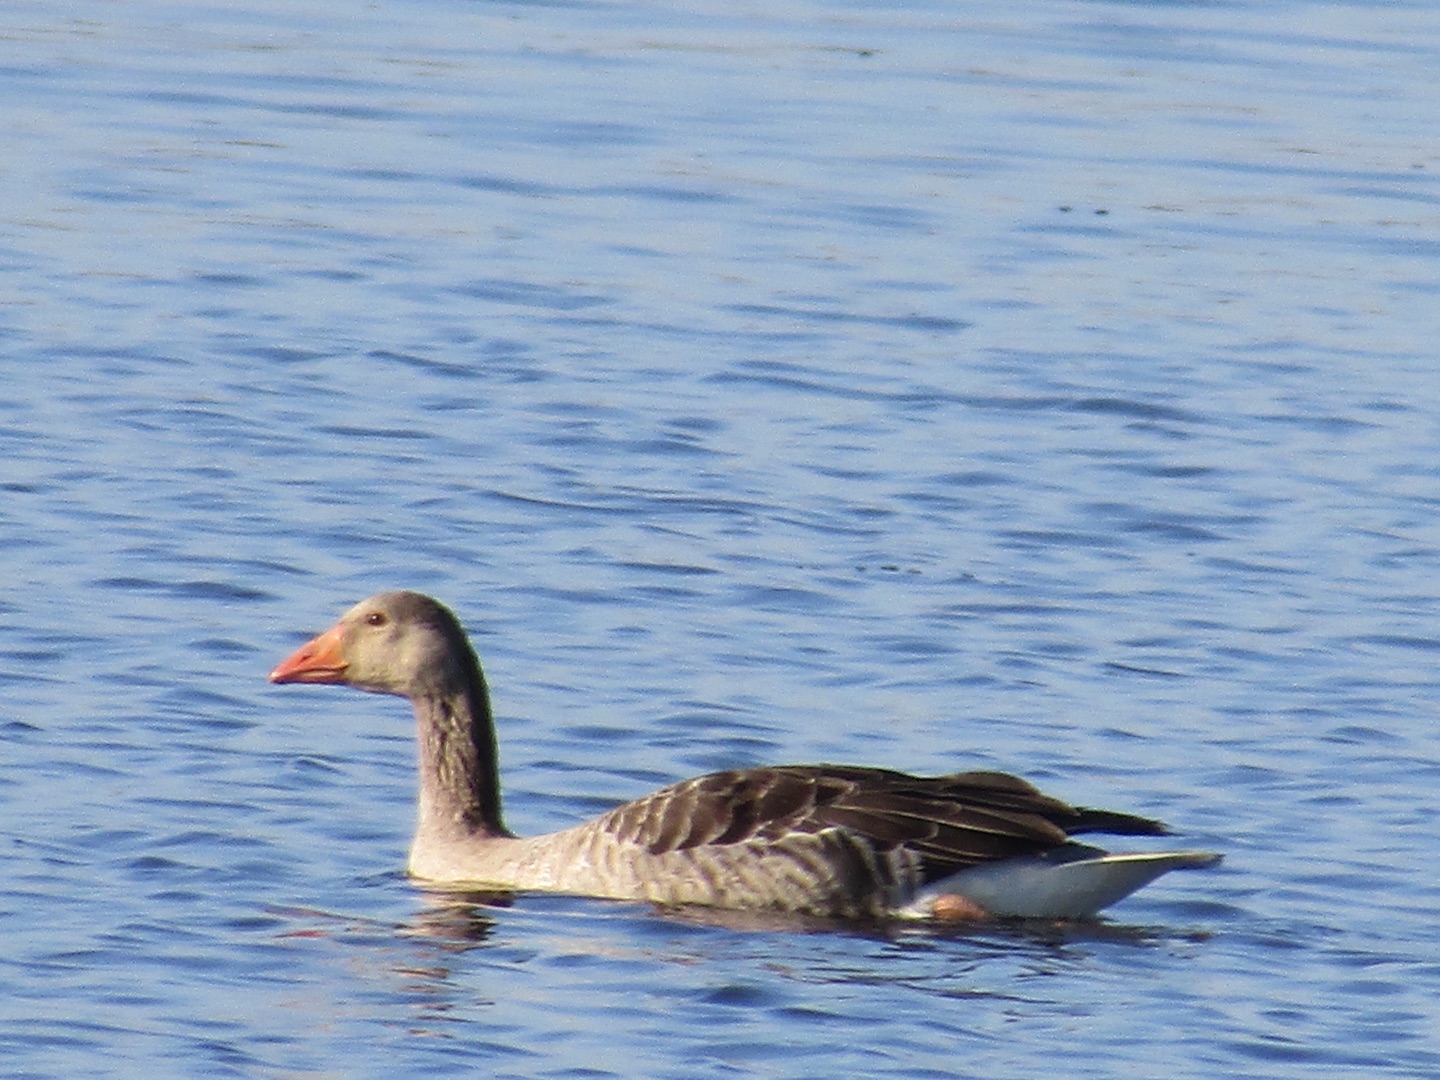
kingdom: Animalia
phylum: Chordata
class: Aves
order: Anseriformes
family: Anatidae
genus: Anser
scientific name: Anser anser
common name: Grågås
